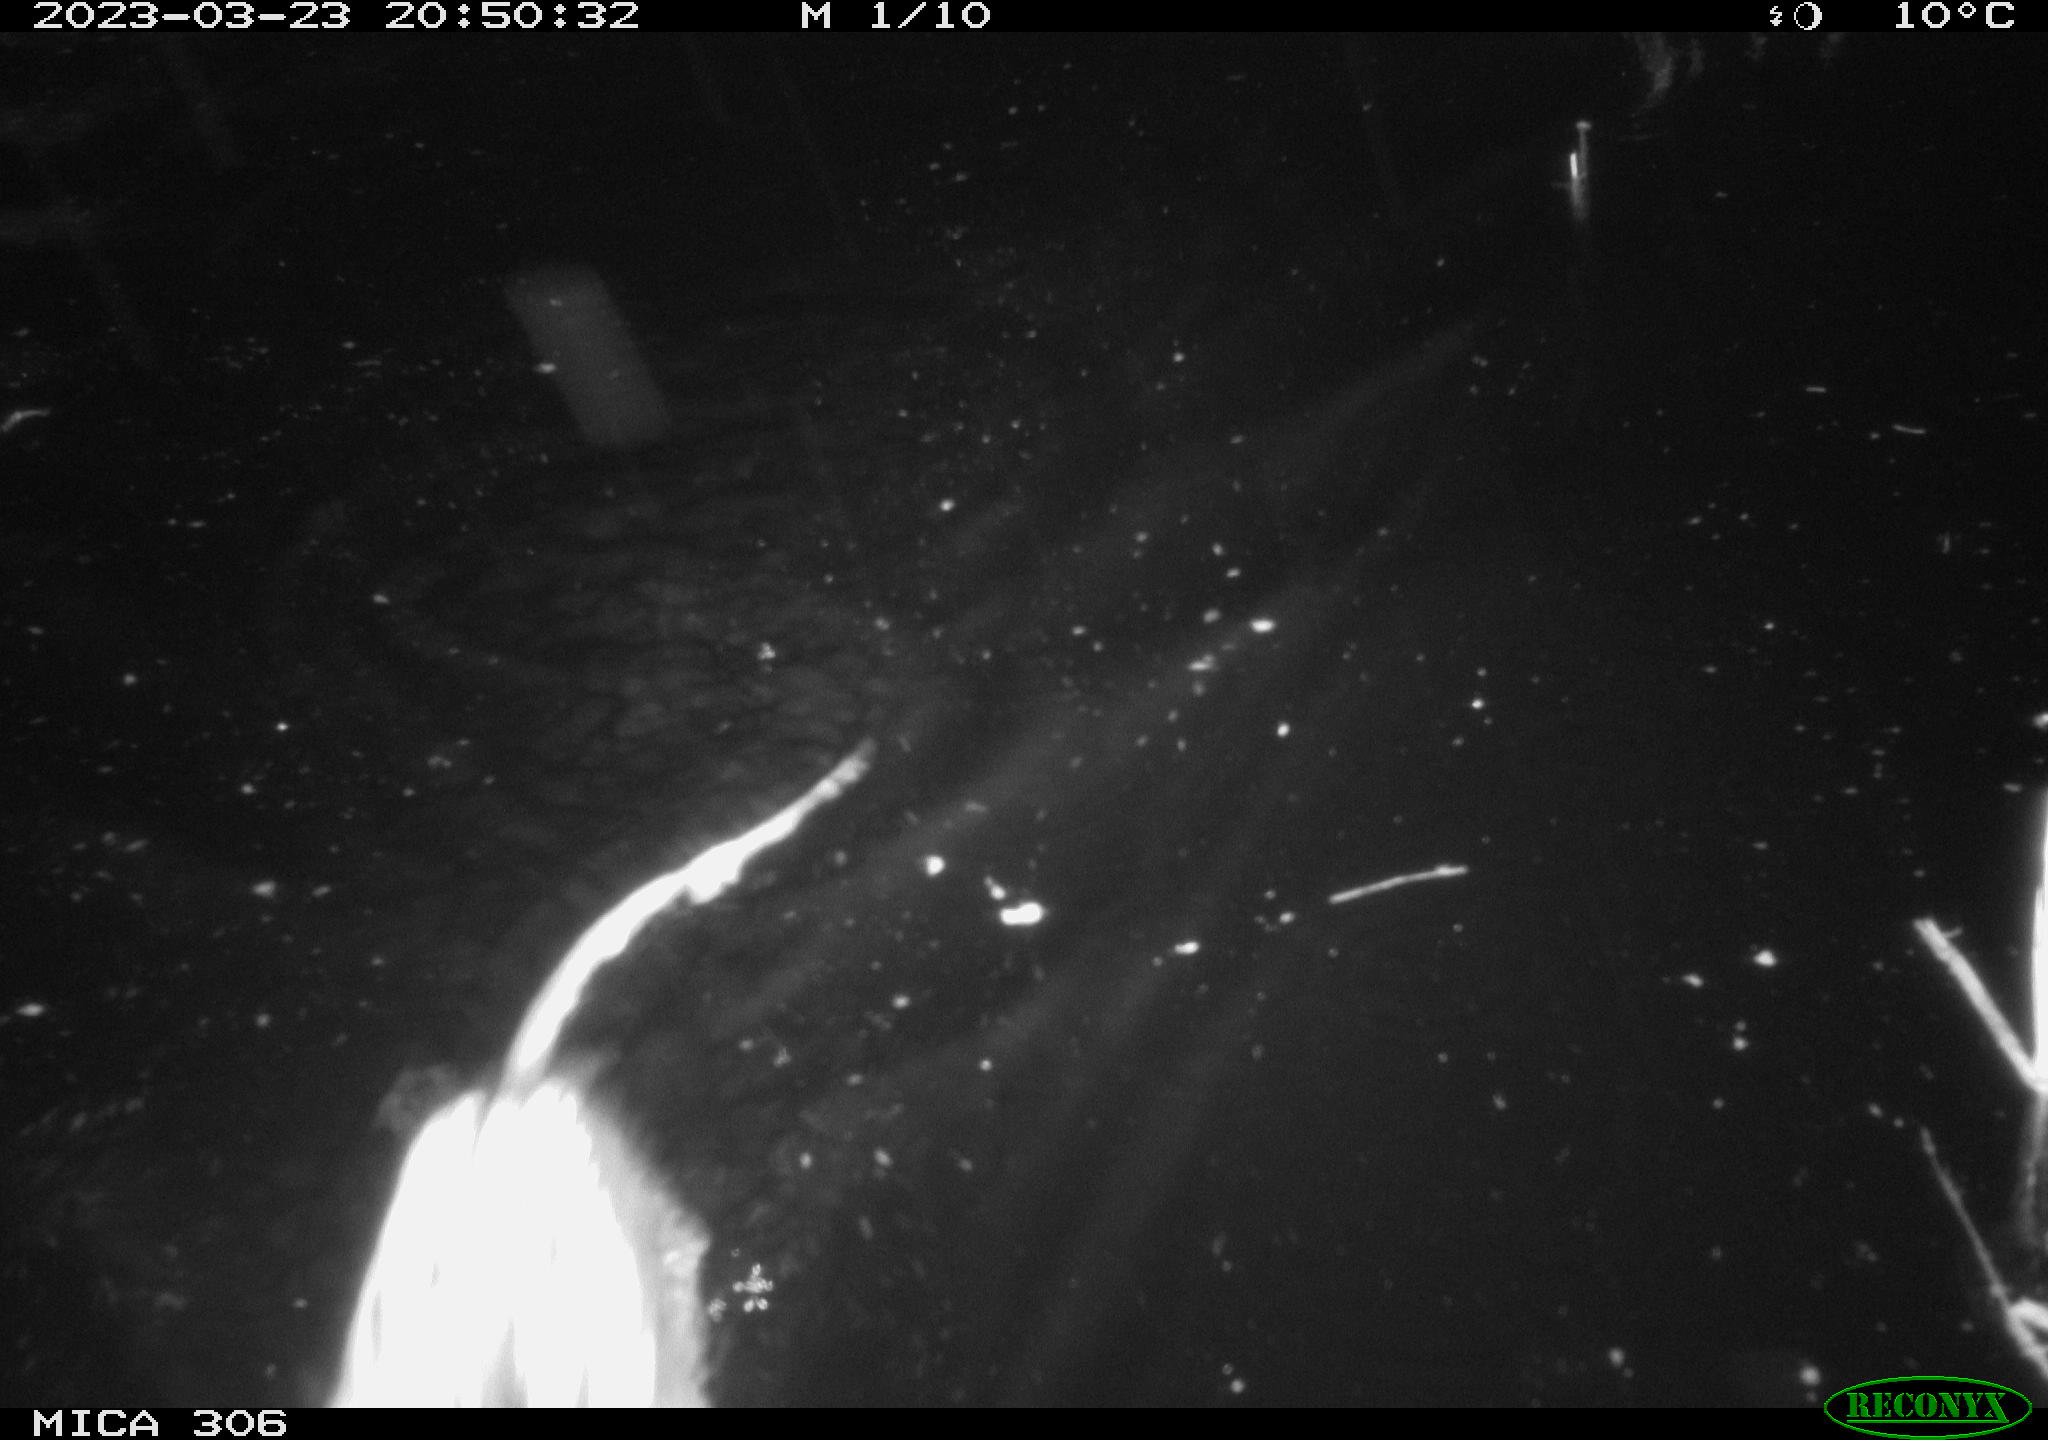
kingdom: Animalia
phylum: Chordata
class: Mammalia
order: Rodentia
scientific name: Rodentia
